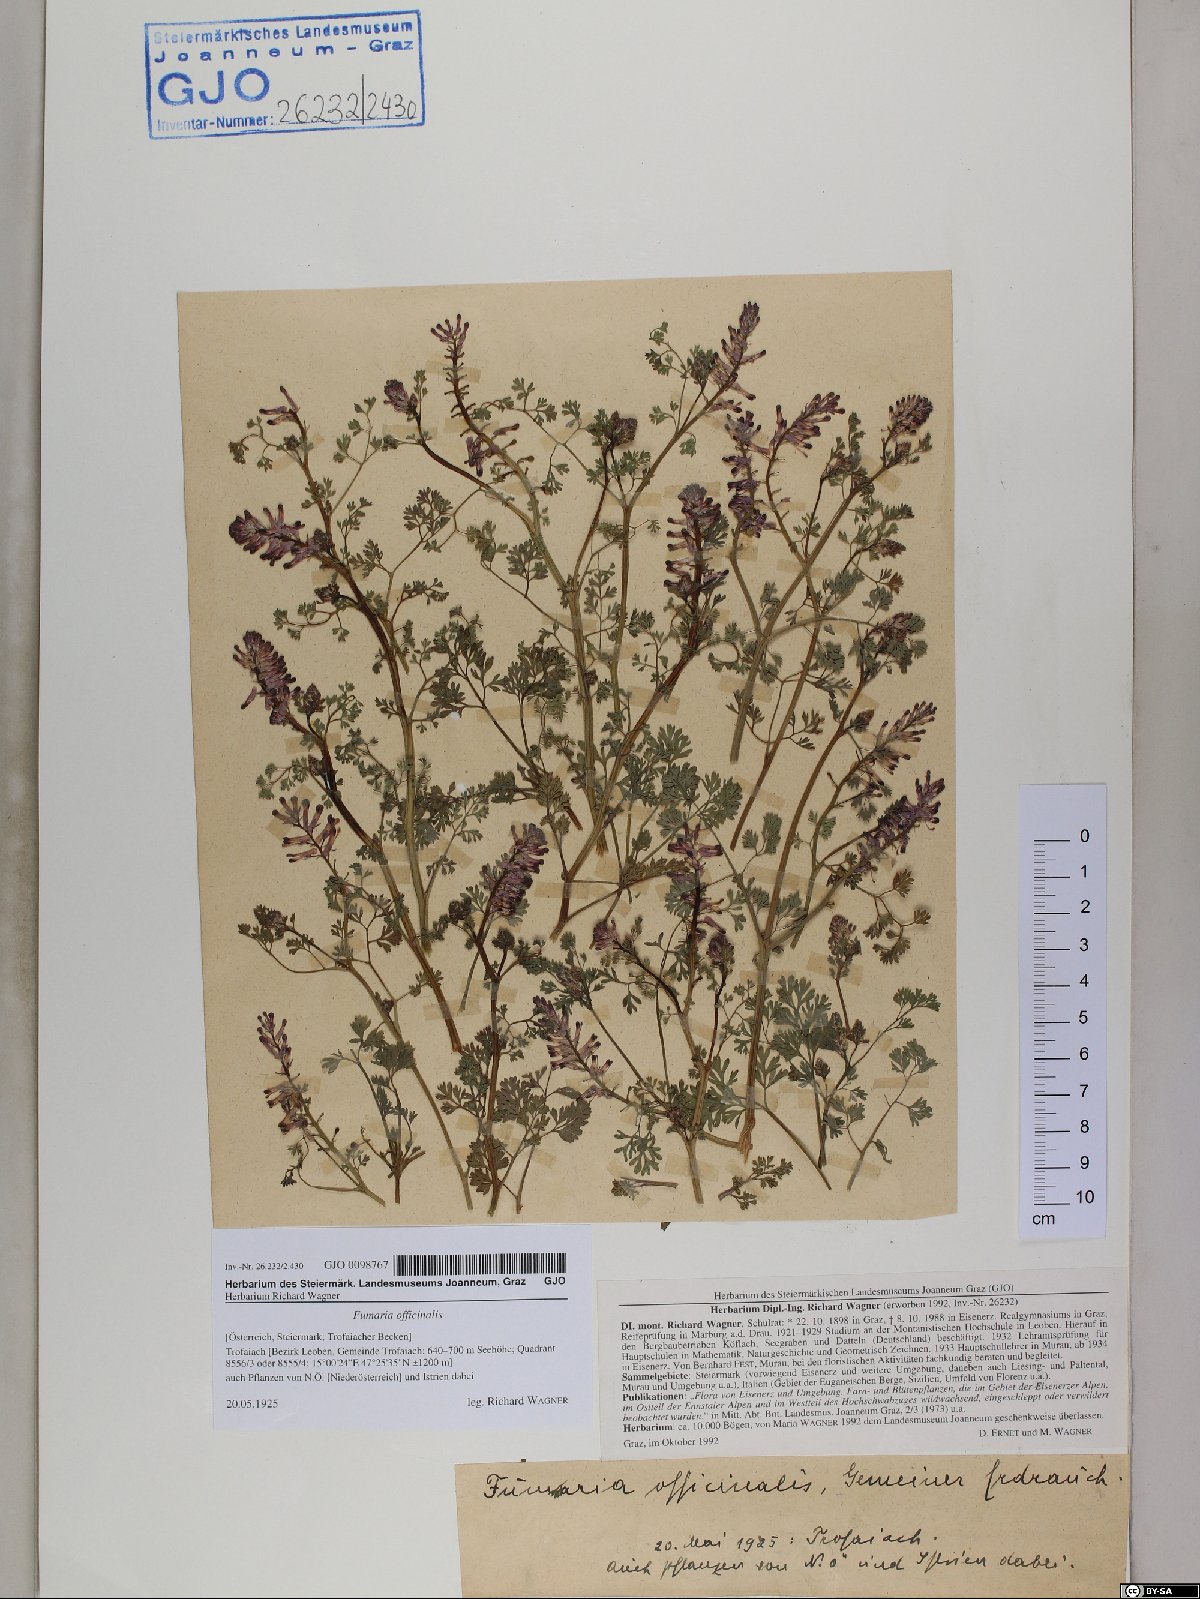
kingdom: Plantae
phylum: Tracheophyta
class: Magnoliopsida
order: Ranunculales
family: Papaveraceae
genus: Fumaria
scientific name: Fumaria officinalis
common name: Common fumitory
